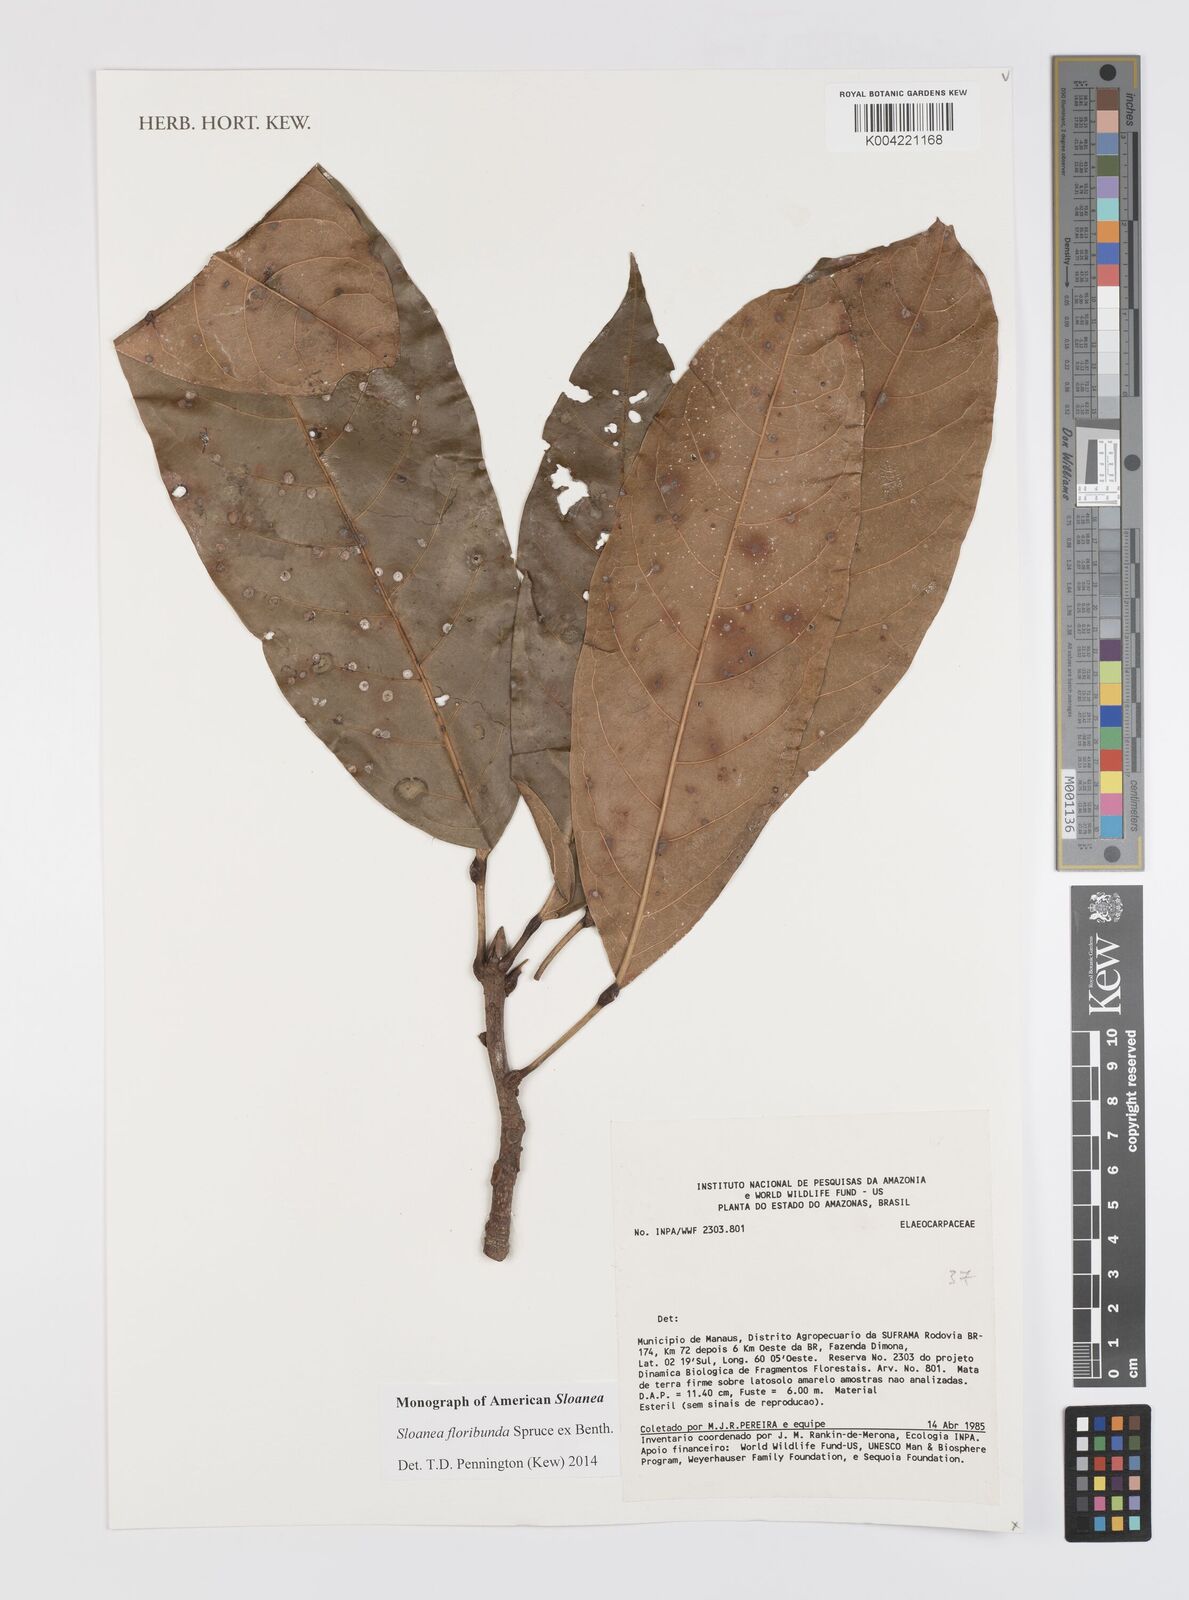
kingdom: Plantae
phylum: Tracheophyta
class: Magnoliopsida
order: Oxalidales
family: Elaeocarpaceae
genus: Sloanea
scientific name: Sloanea floribunda
